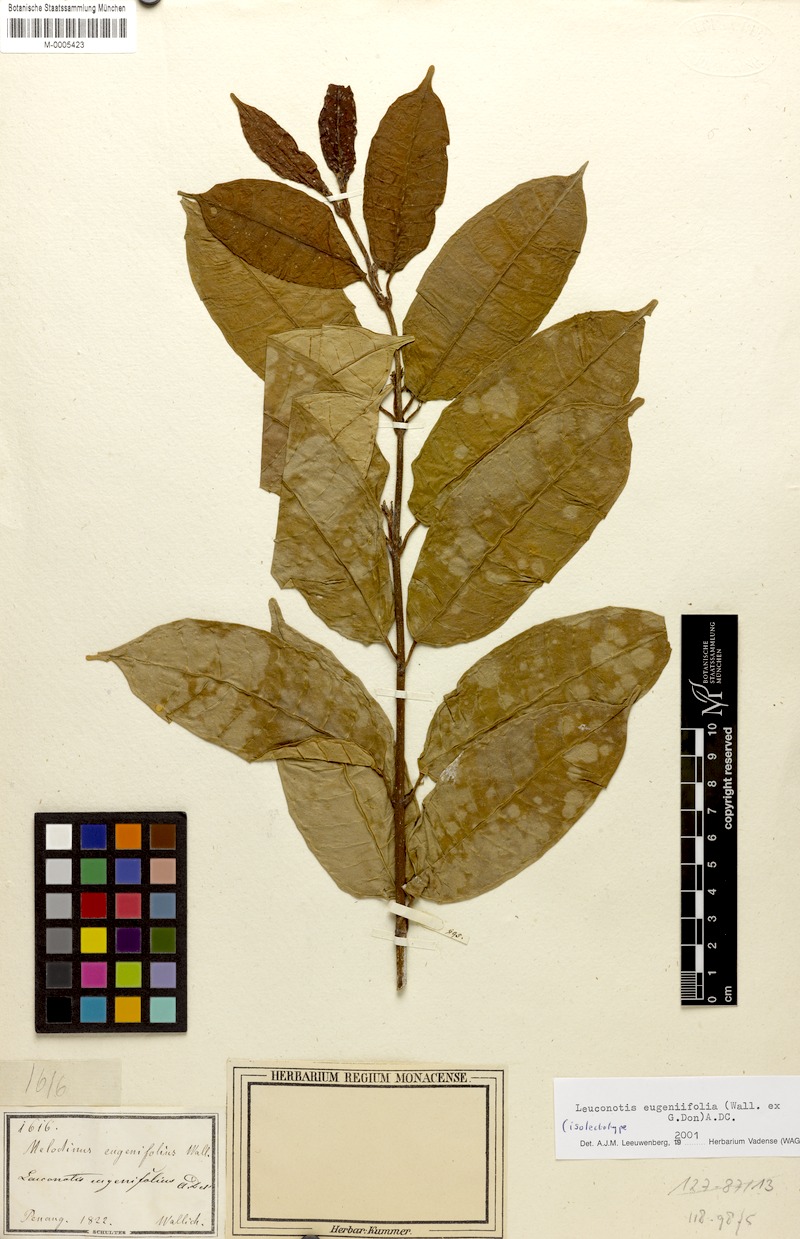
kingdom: Plantae
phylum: Tracheophyta
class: Magnoliopsida
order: Gentianales
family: Apocynaceae
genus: Leuconotis
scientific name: Leuconotis eugeniifolia
